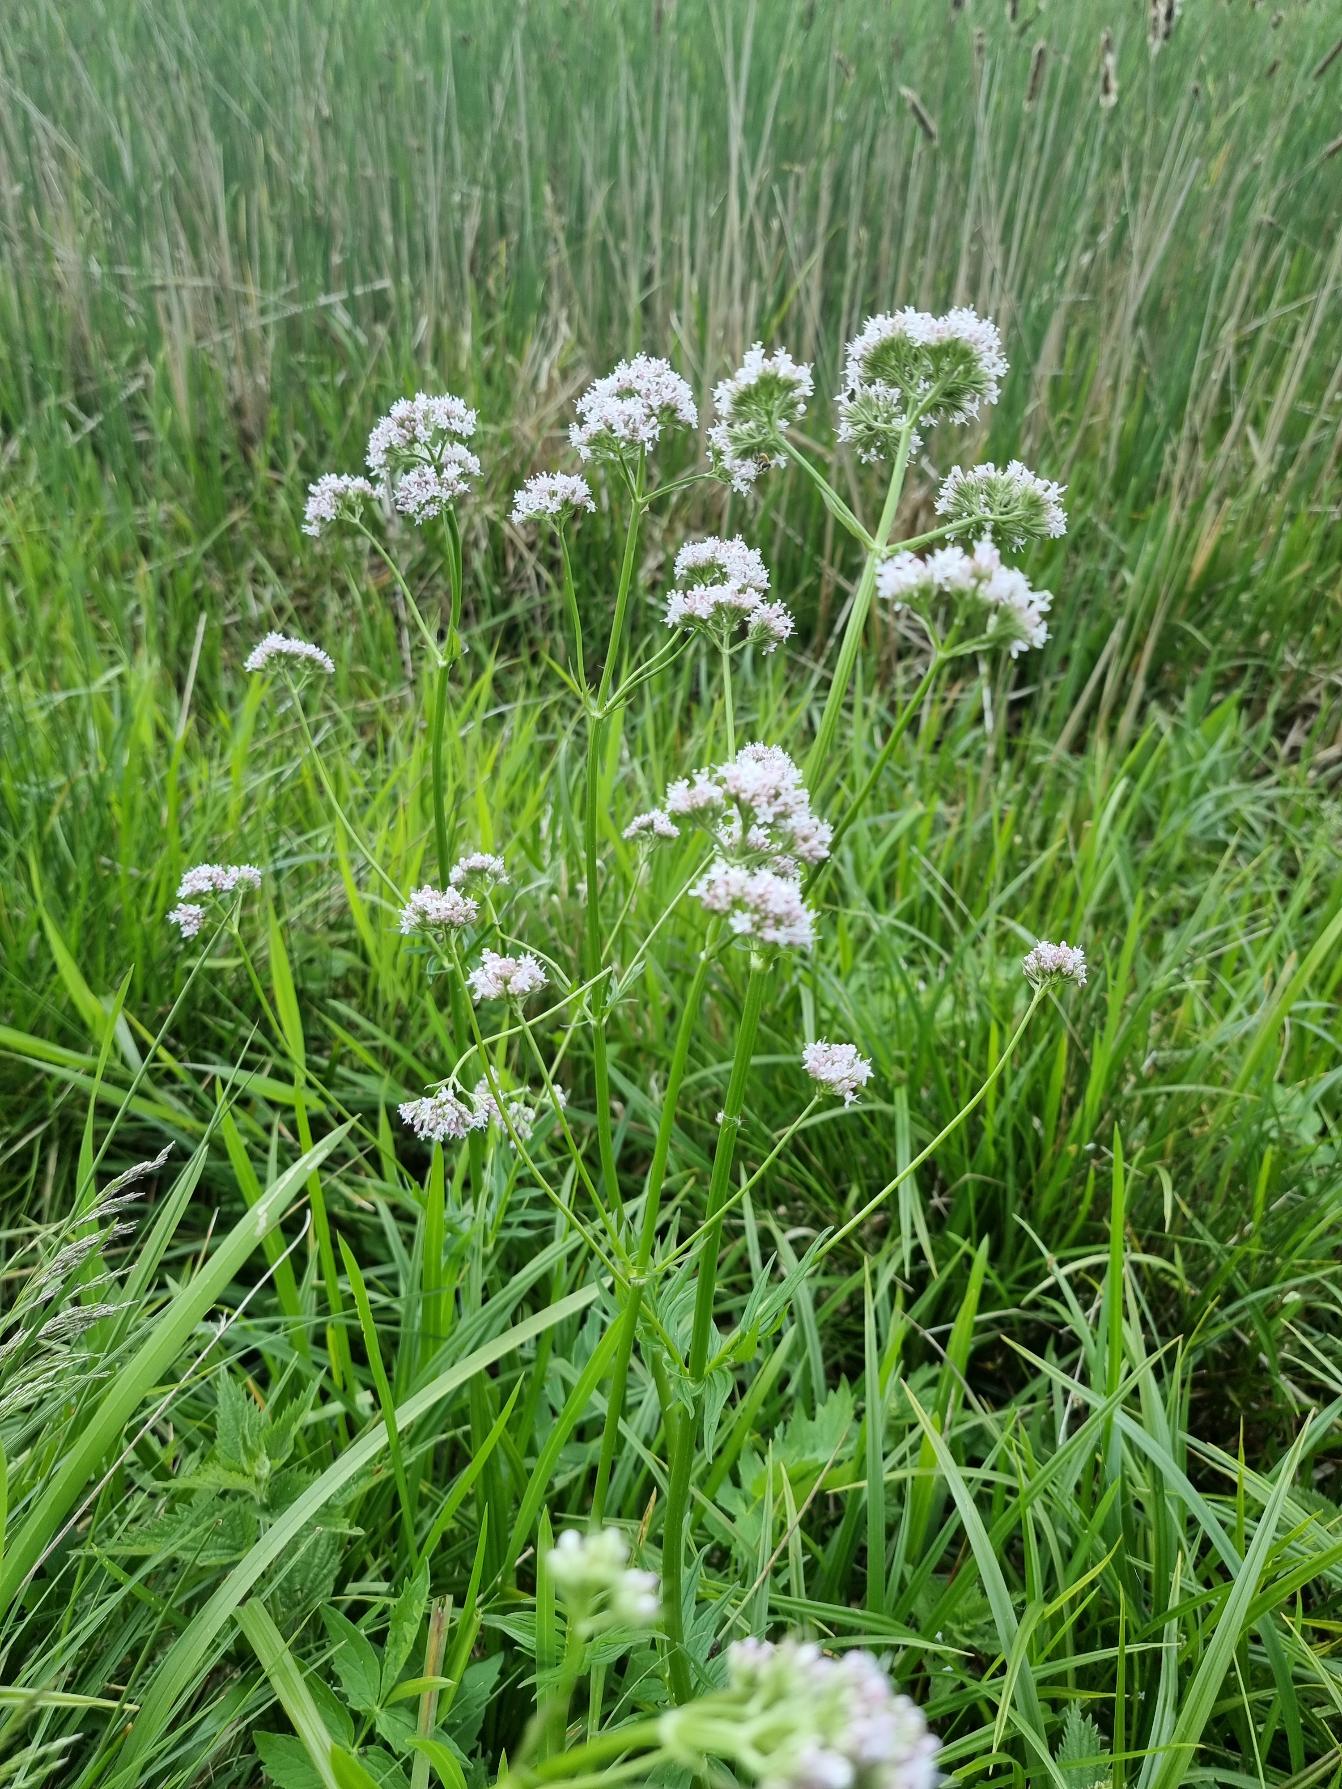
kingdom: Plantae
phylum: Tracheophyta
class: Magnoliopsida
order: Dipsacales
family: Caprifoliaceae
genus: Valeriana
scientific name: Valeriana sambucifolia
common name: Hyldebladet baldrian
